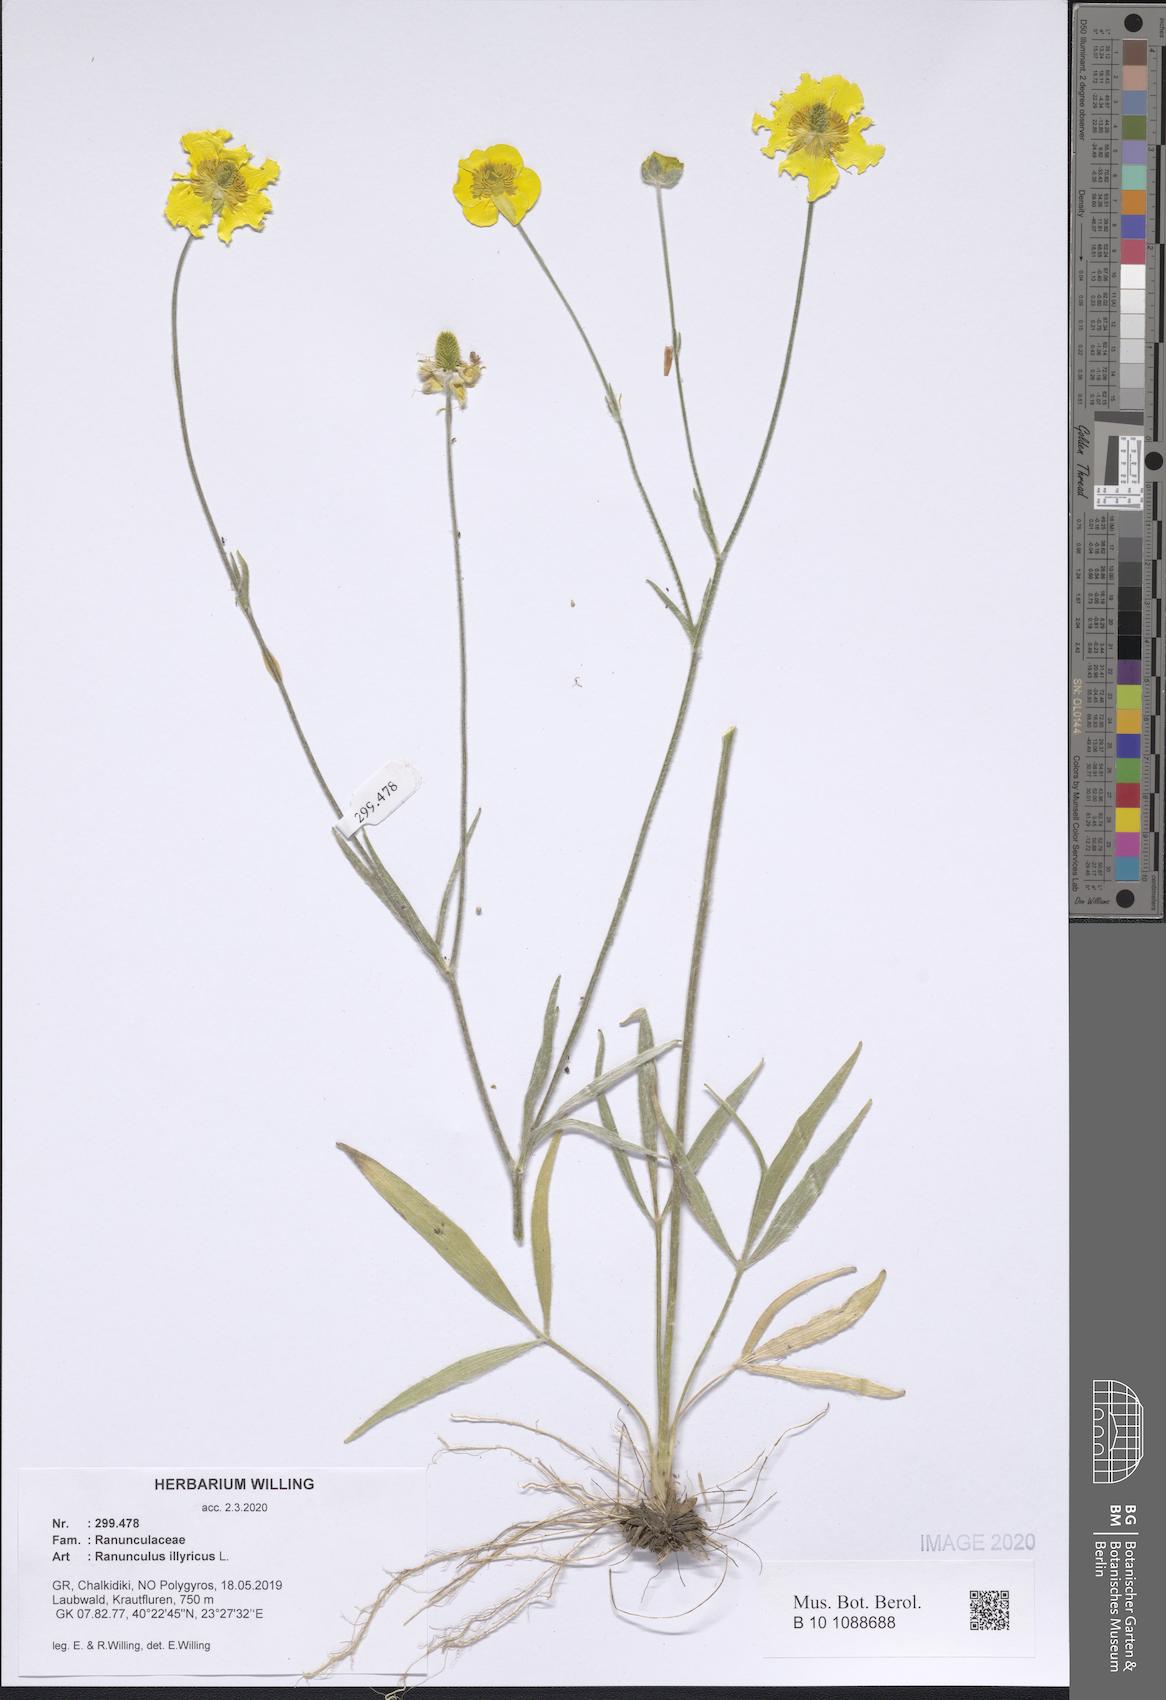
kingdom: Plantae
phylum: Tracheophyta
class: Magnoliopsida
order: Ranunculales
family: Ranunculaceae
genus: Ranunculus
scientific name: Ranunculus illyricus
